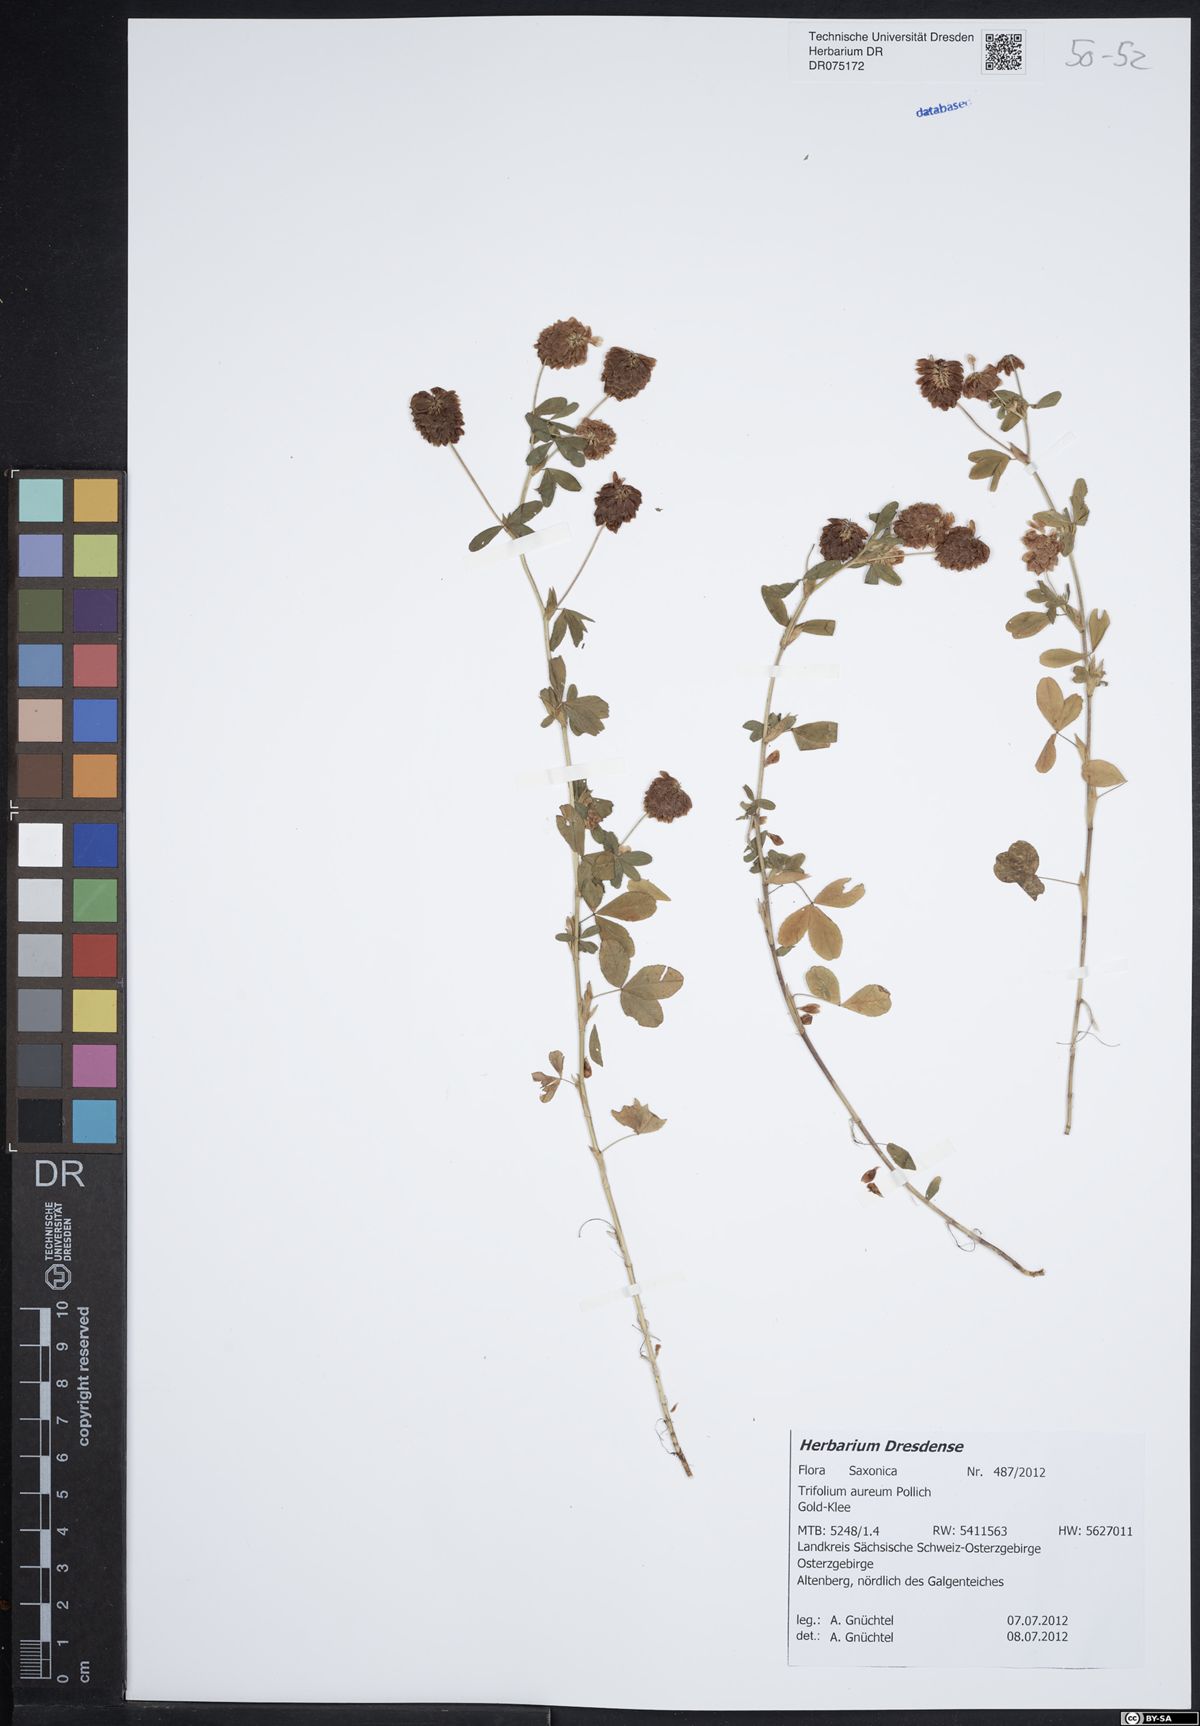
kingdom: Plantae
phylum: Tracheophyta
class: Magnoliopsida
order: Fabales
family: Fabaceae
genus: Trifolium
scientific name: Trifolium aureum
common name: Golden clover
